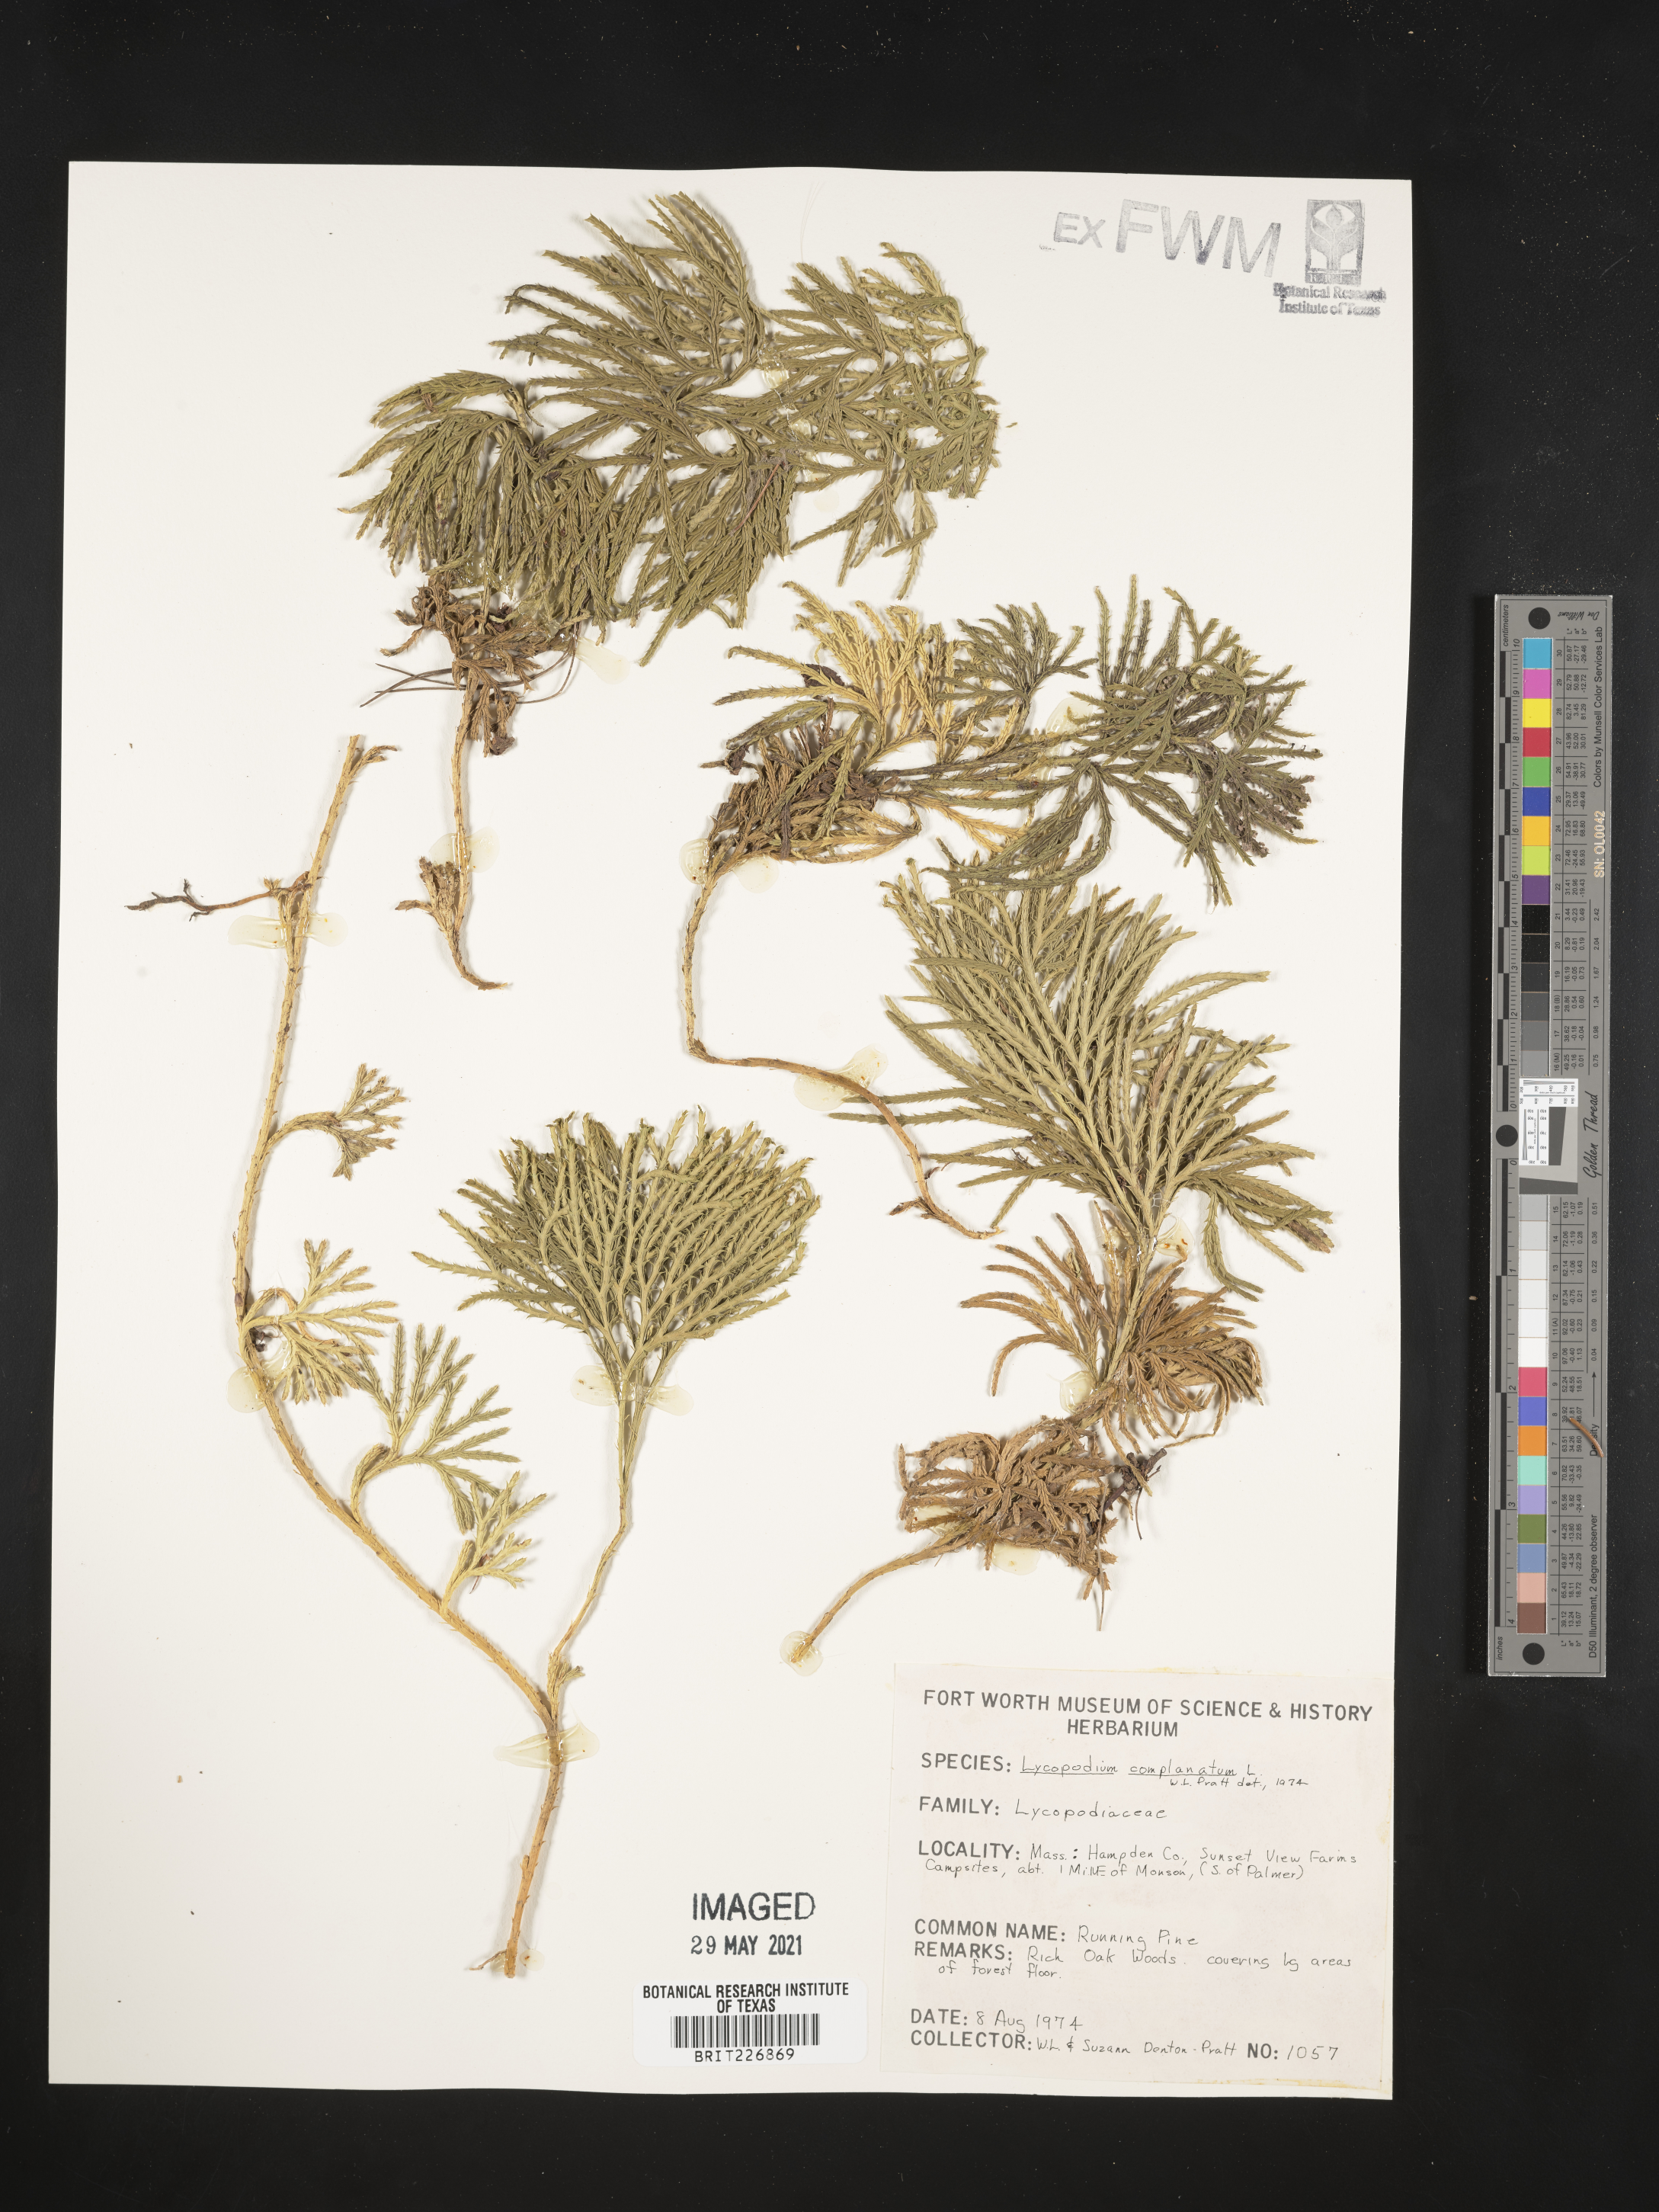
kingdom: Plantae
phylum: Tracheophyta
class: Lycopodiopsida
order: Lycopodiales
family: Lycopodiaceae
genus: Diphasiastrum
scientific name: Diphasiastrum complanatum
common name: Northern running-pine
